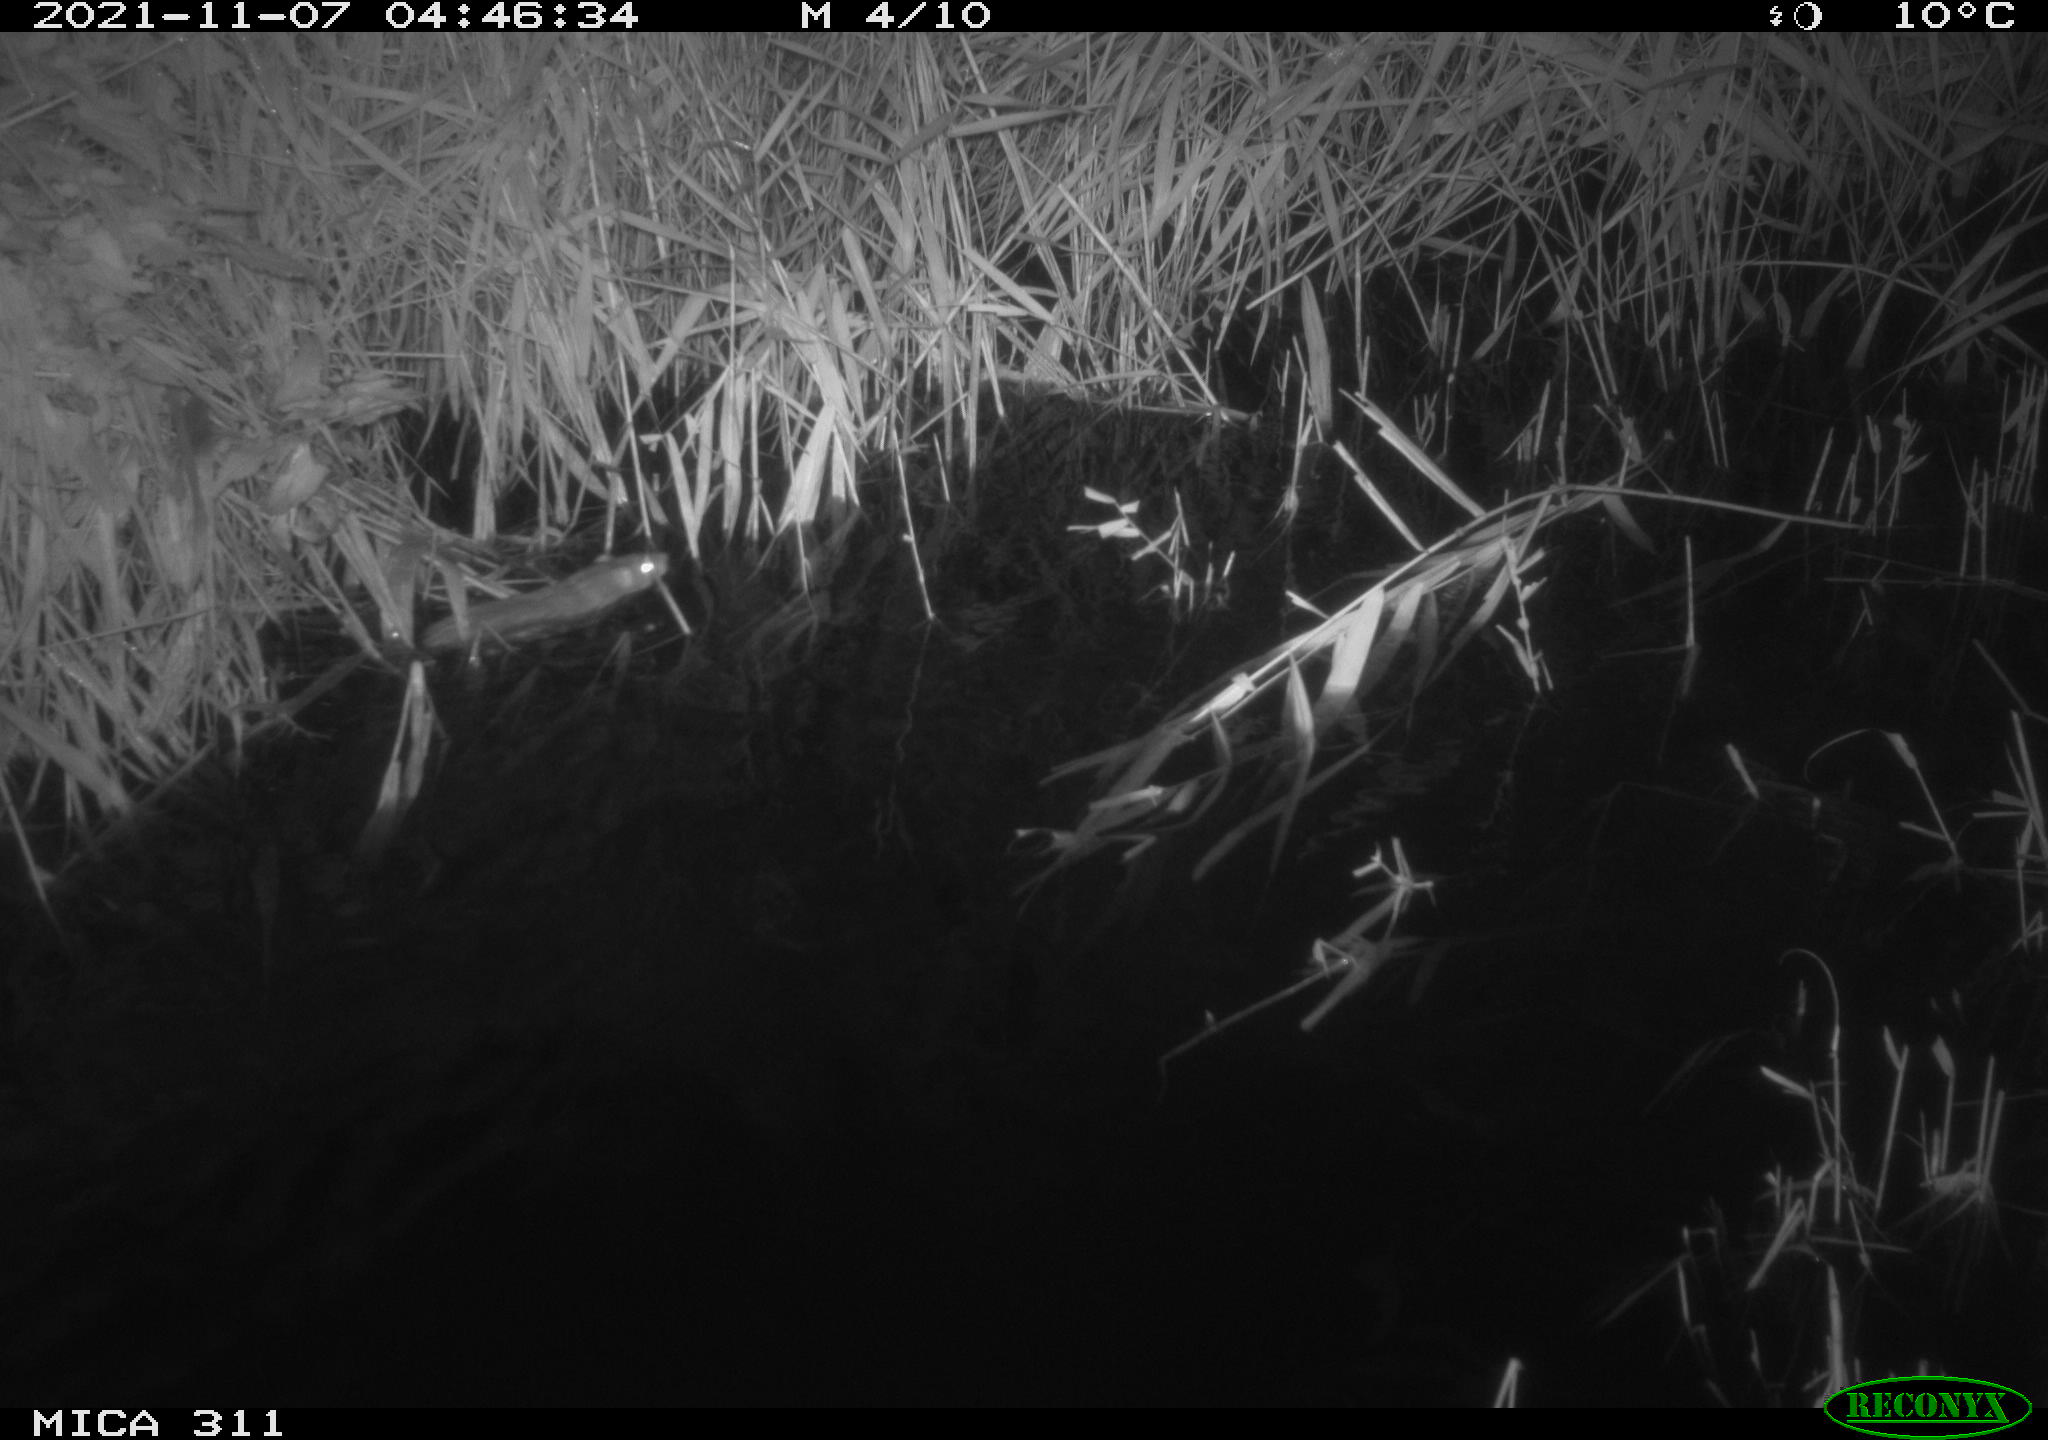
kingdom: Animalia
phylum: Chordata
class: Mammalia
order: Rodentia
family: Muridae
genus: Rattus
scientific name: Rattus norvegicus
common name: Brown rat
